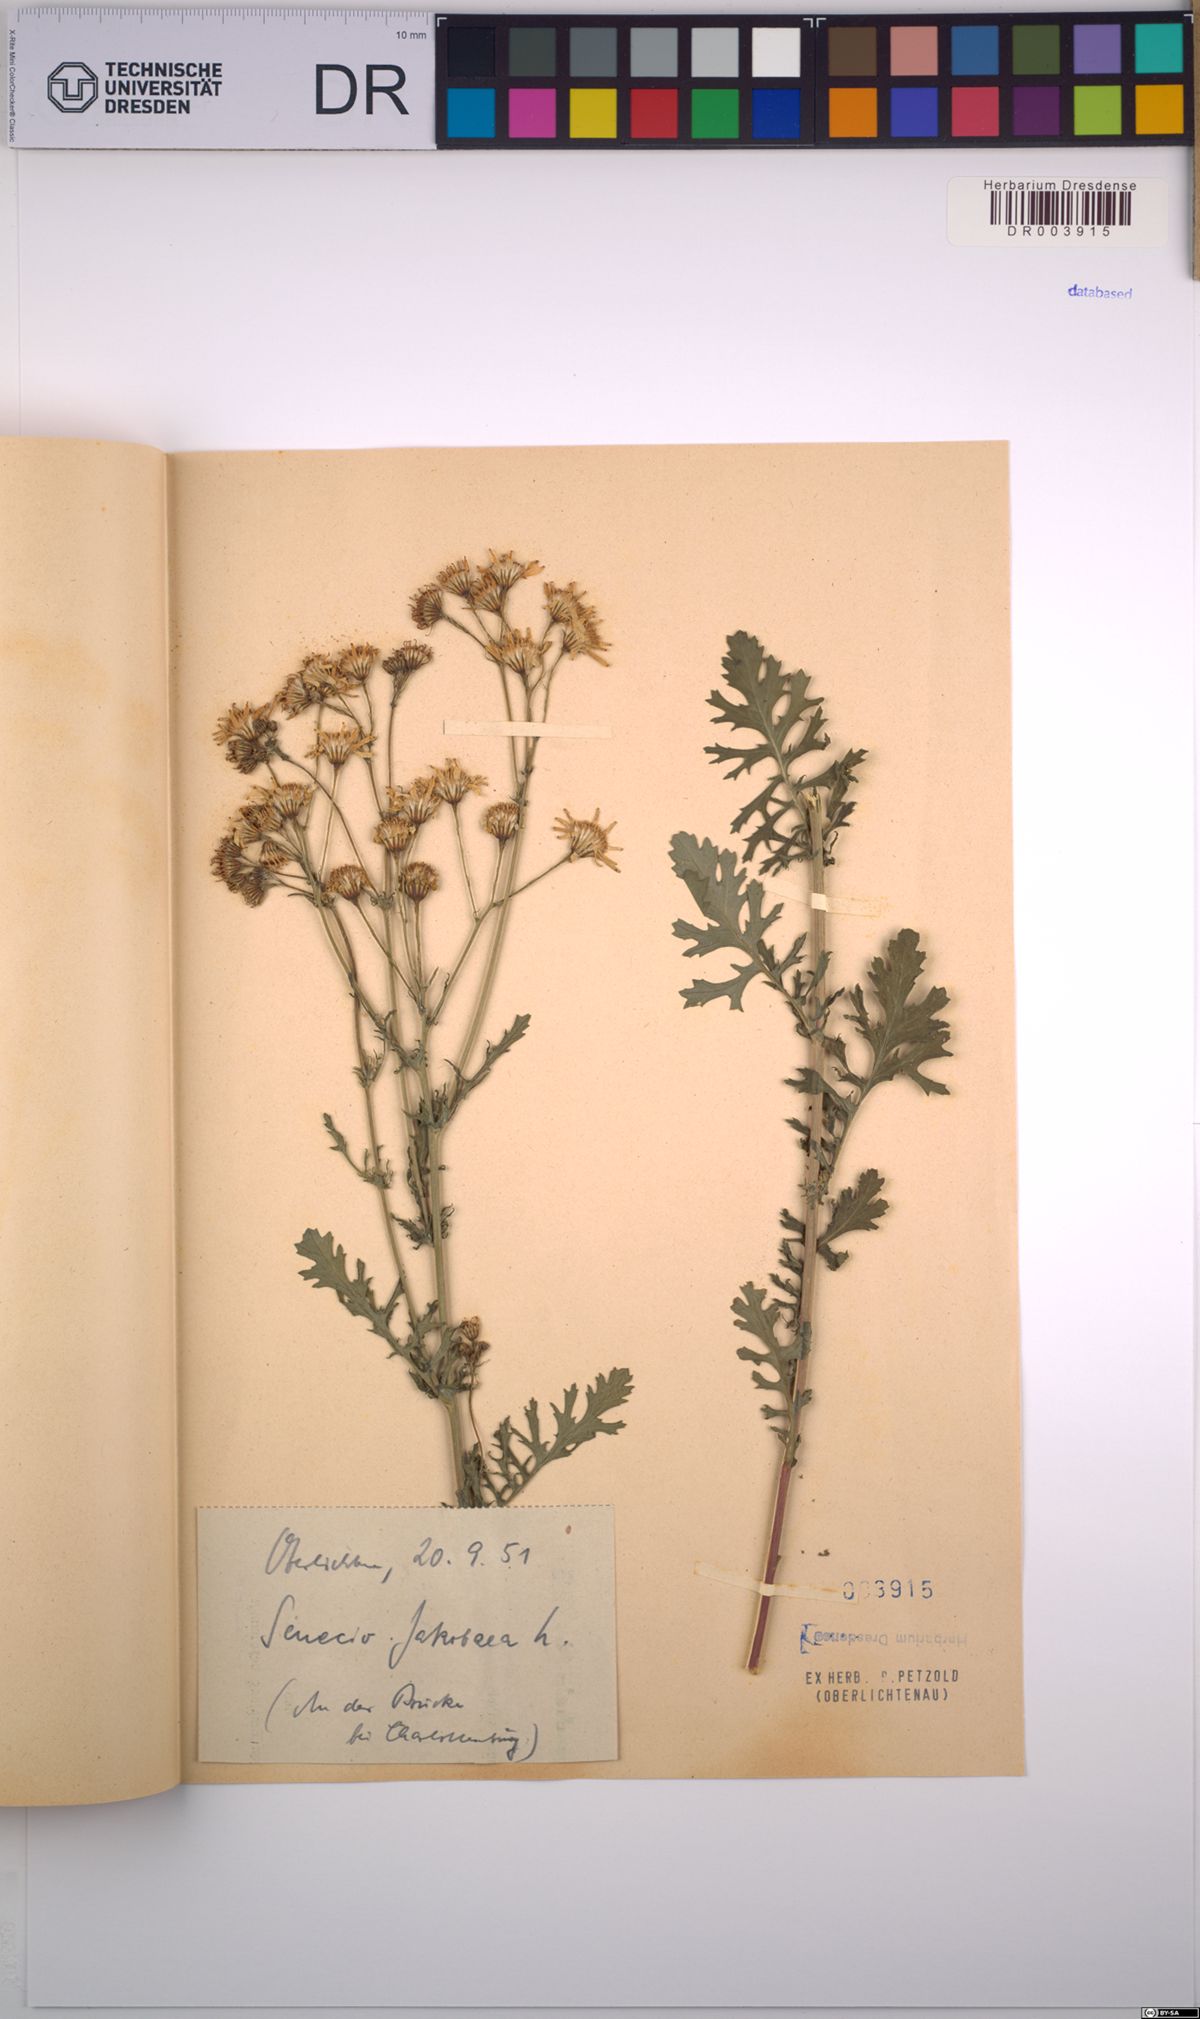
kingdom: Plantae
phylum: Tracheophyta
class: Magnoliopsida
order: Asterales
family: Asteraceae
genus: Jacobaea
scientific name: Jacobaea vulgaris
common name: Stinking willie
